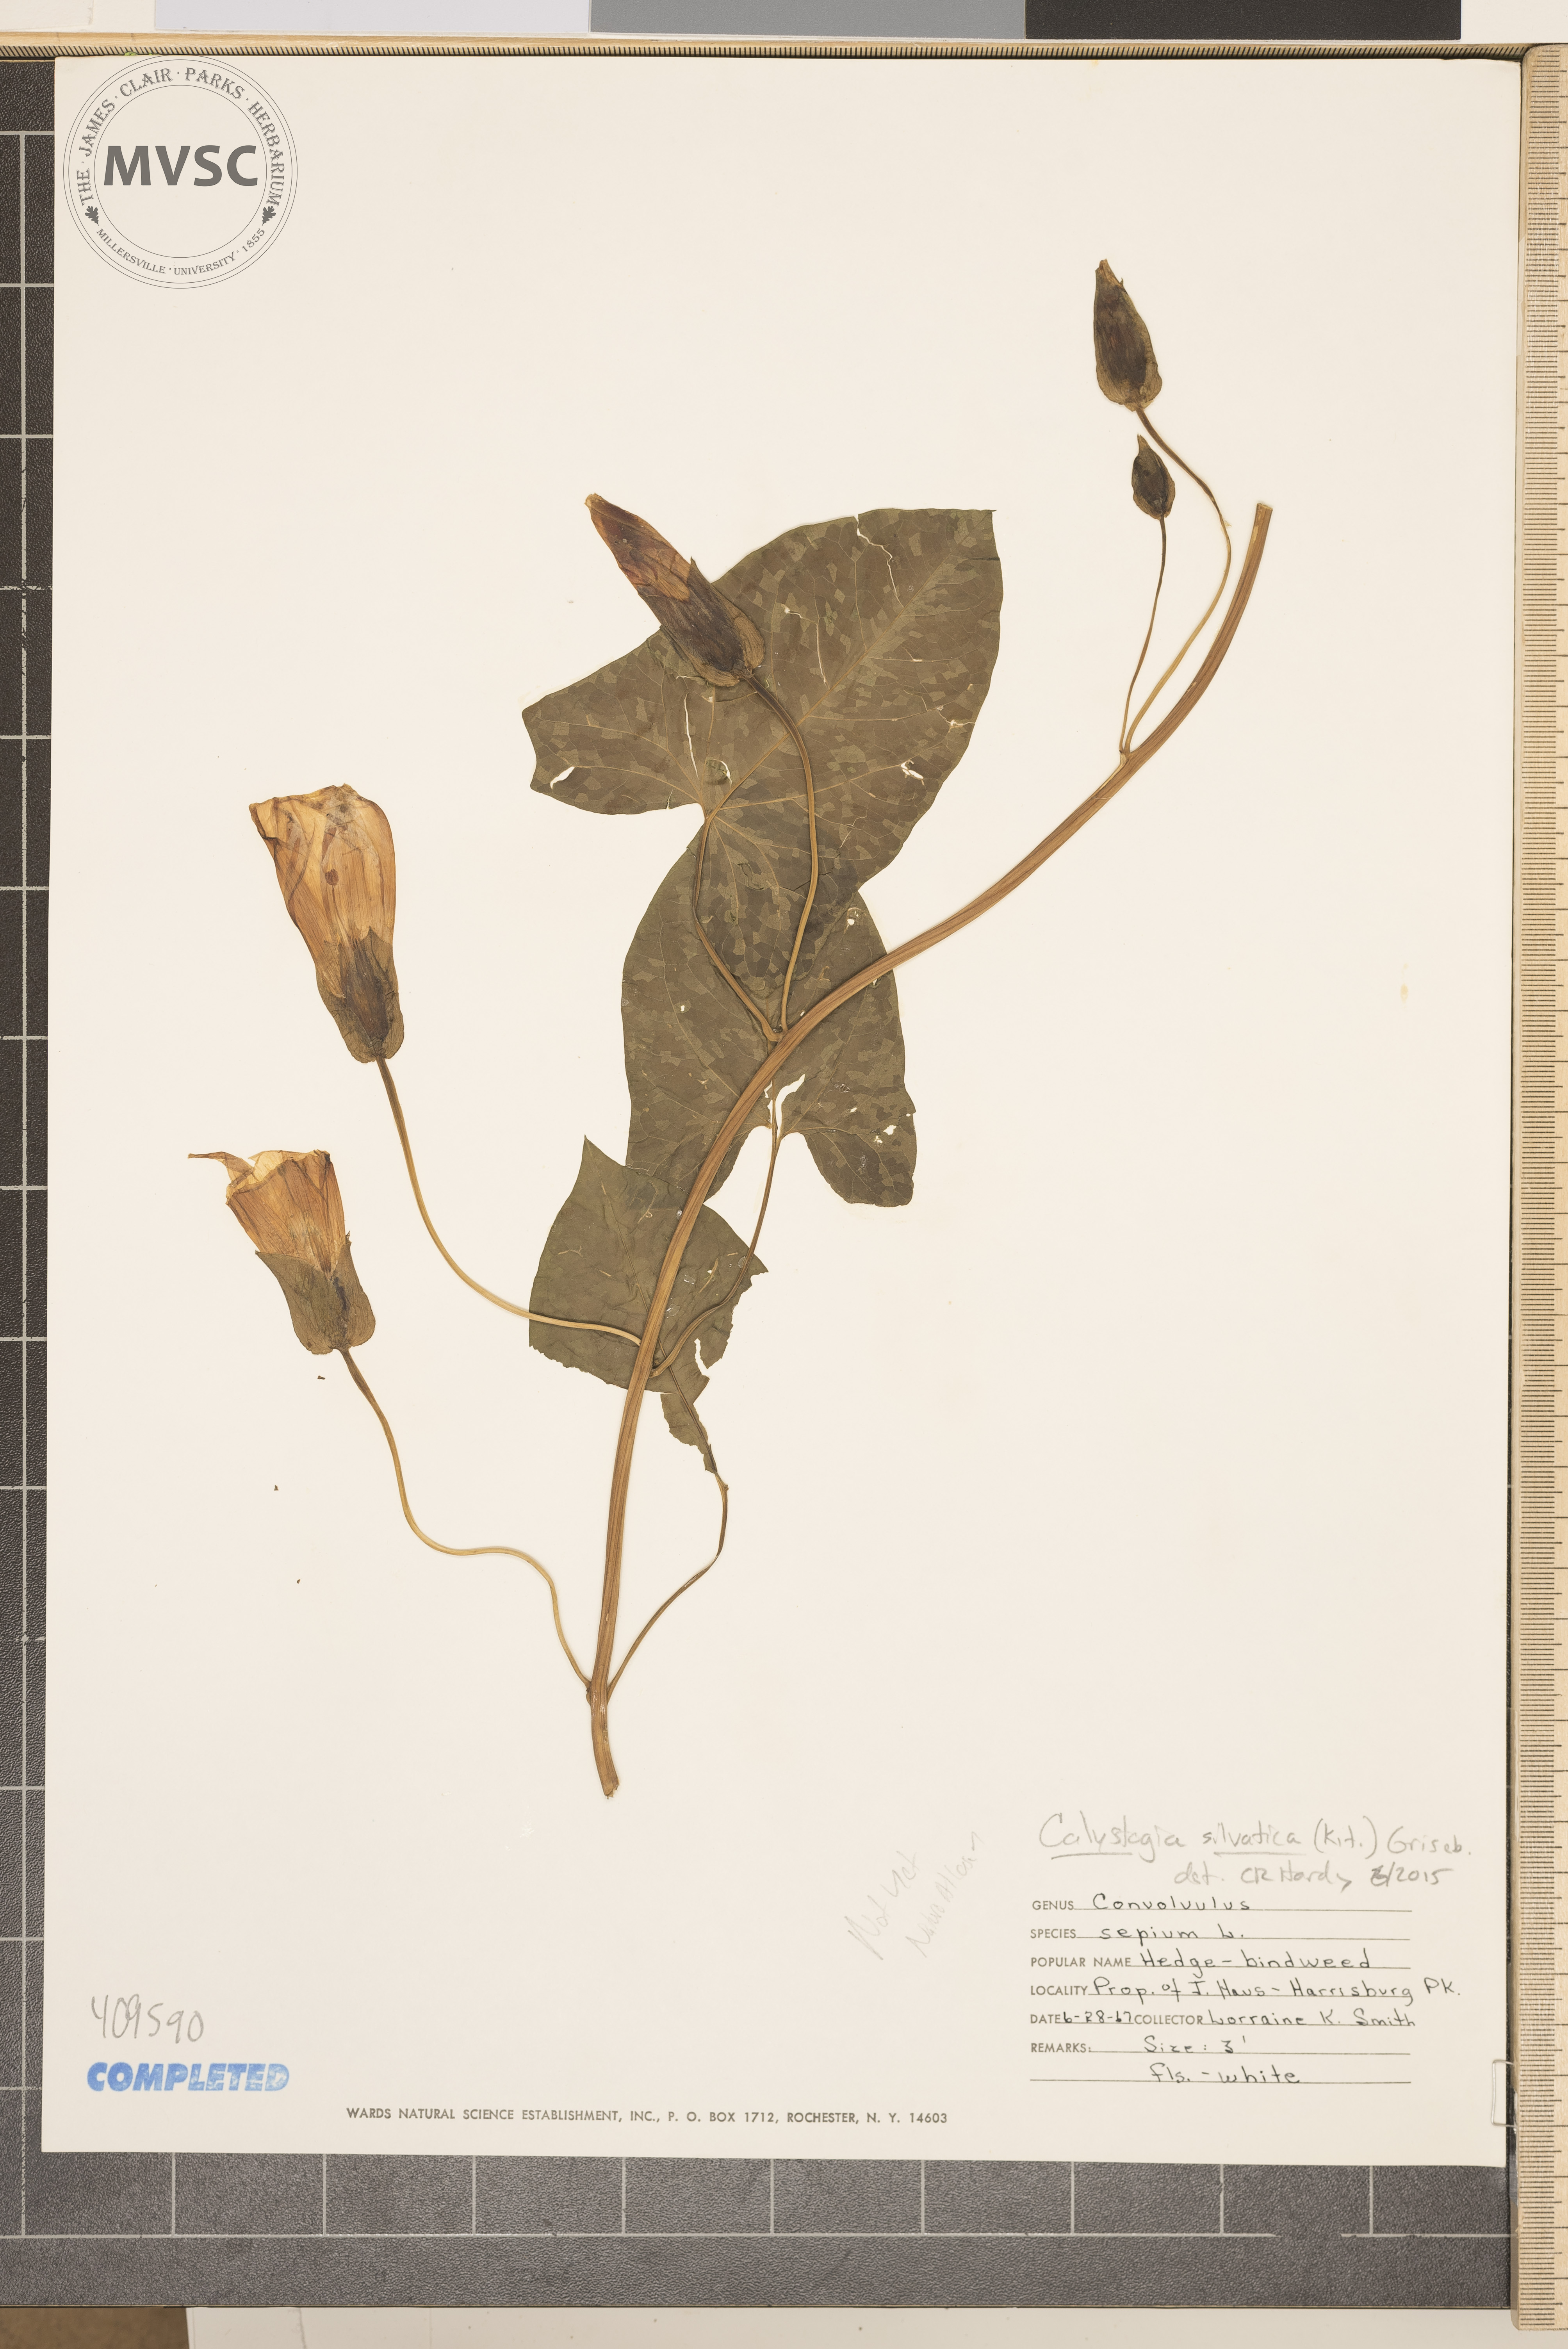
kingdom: Plantae
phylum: Tracheophyta
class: Magnoliopsida
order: Solanales
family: Convolvulaceae
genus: Calystegia
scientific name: Calystegia silvatica
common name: Large bindweed
